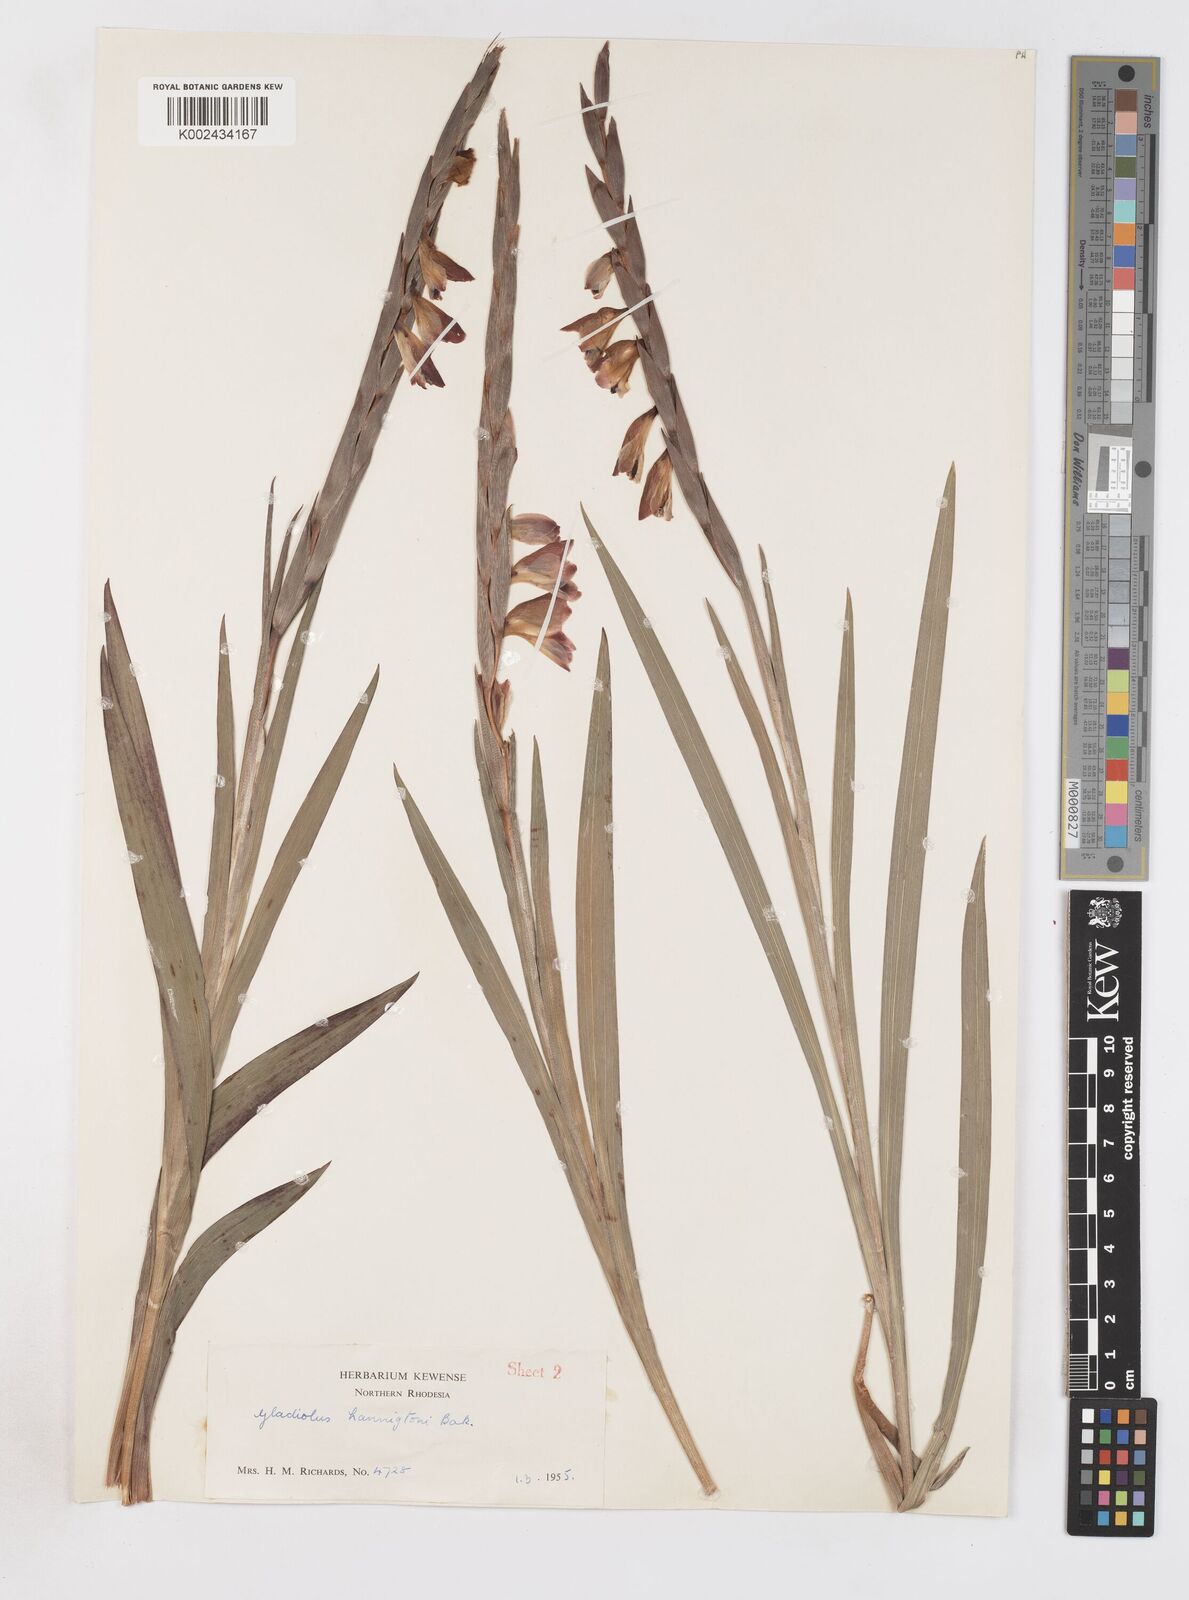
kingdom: Plantae
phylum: Tracheophyta
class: Liliopsida
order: Asparagales
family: Iridaceae
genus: Gladiolus
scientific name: Gladiolus gregarius
